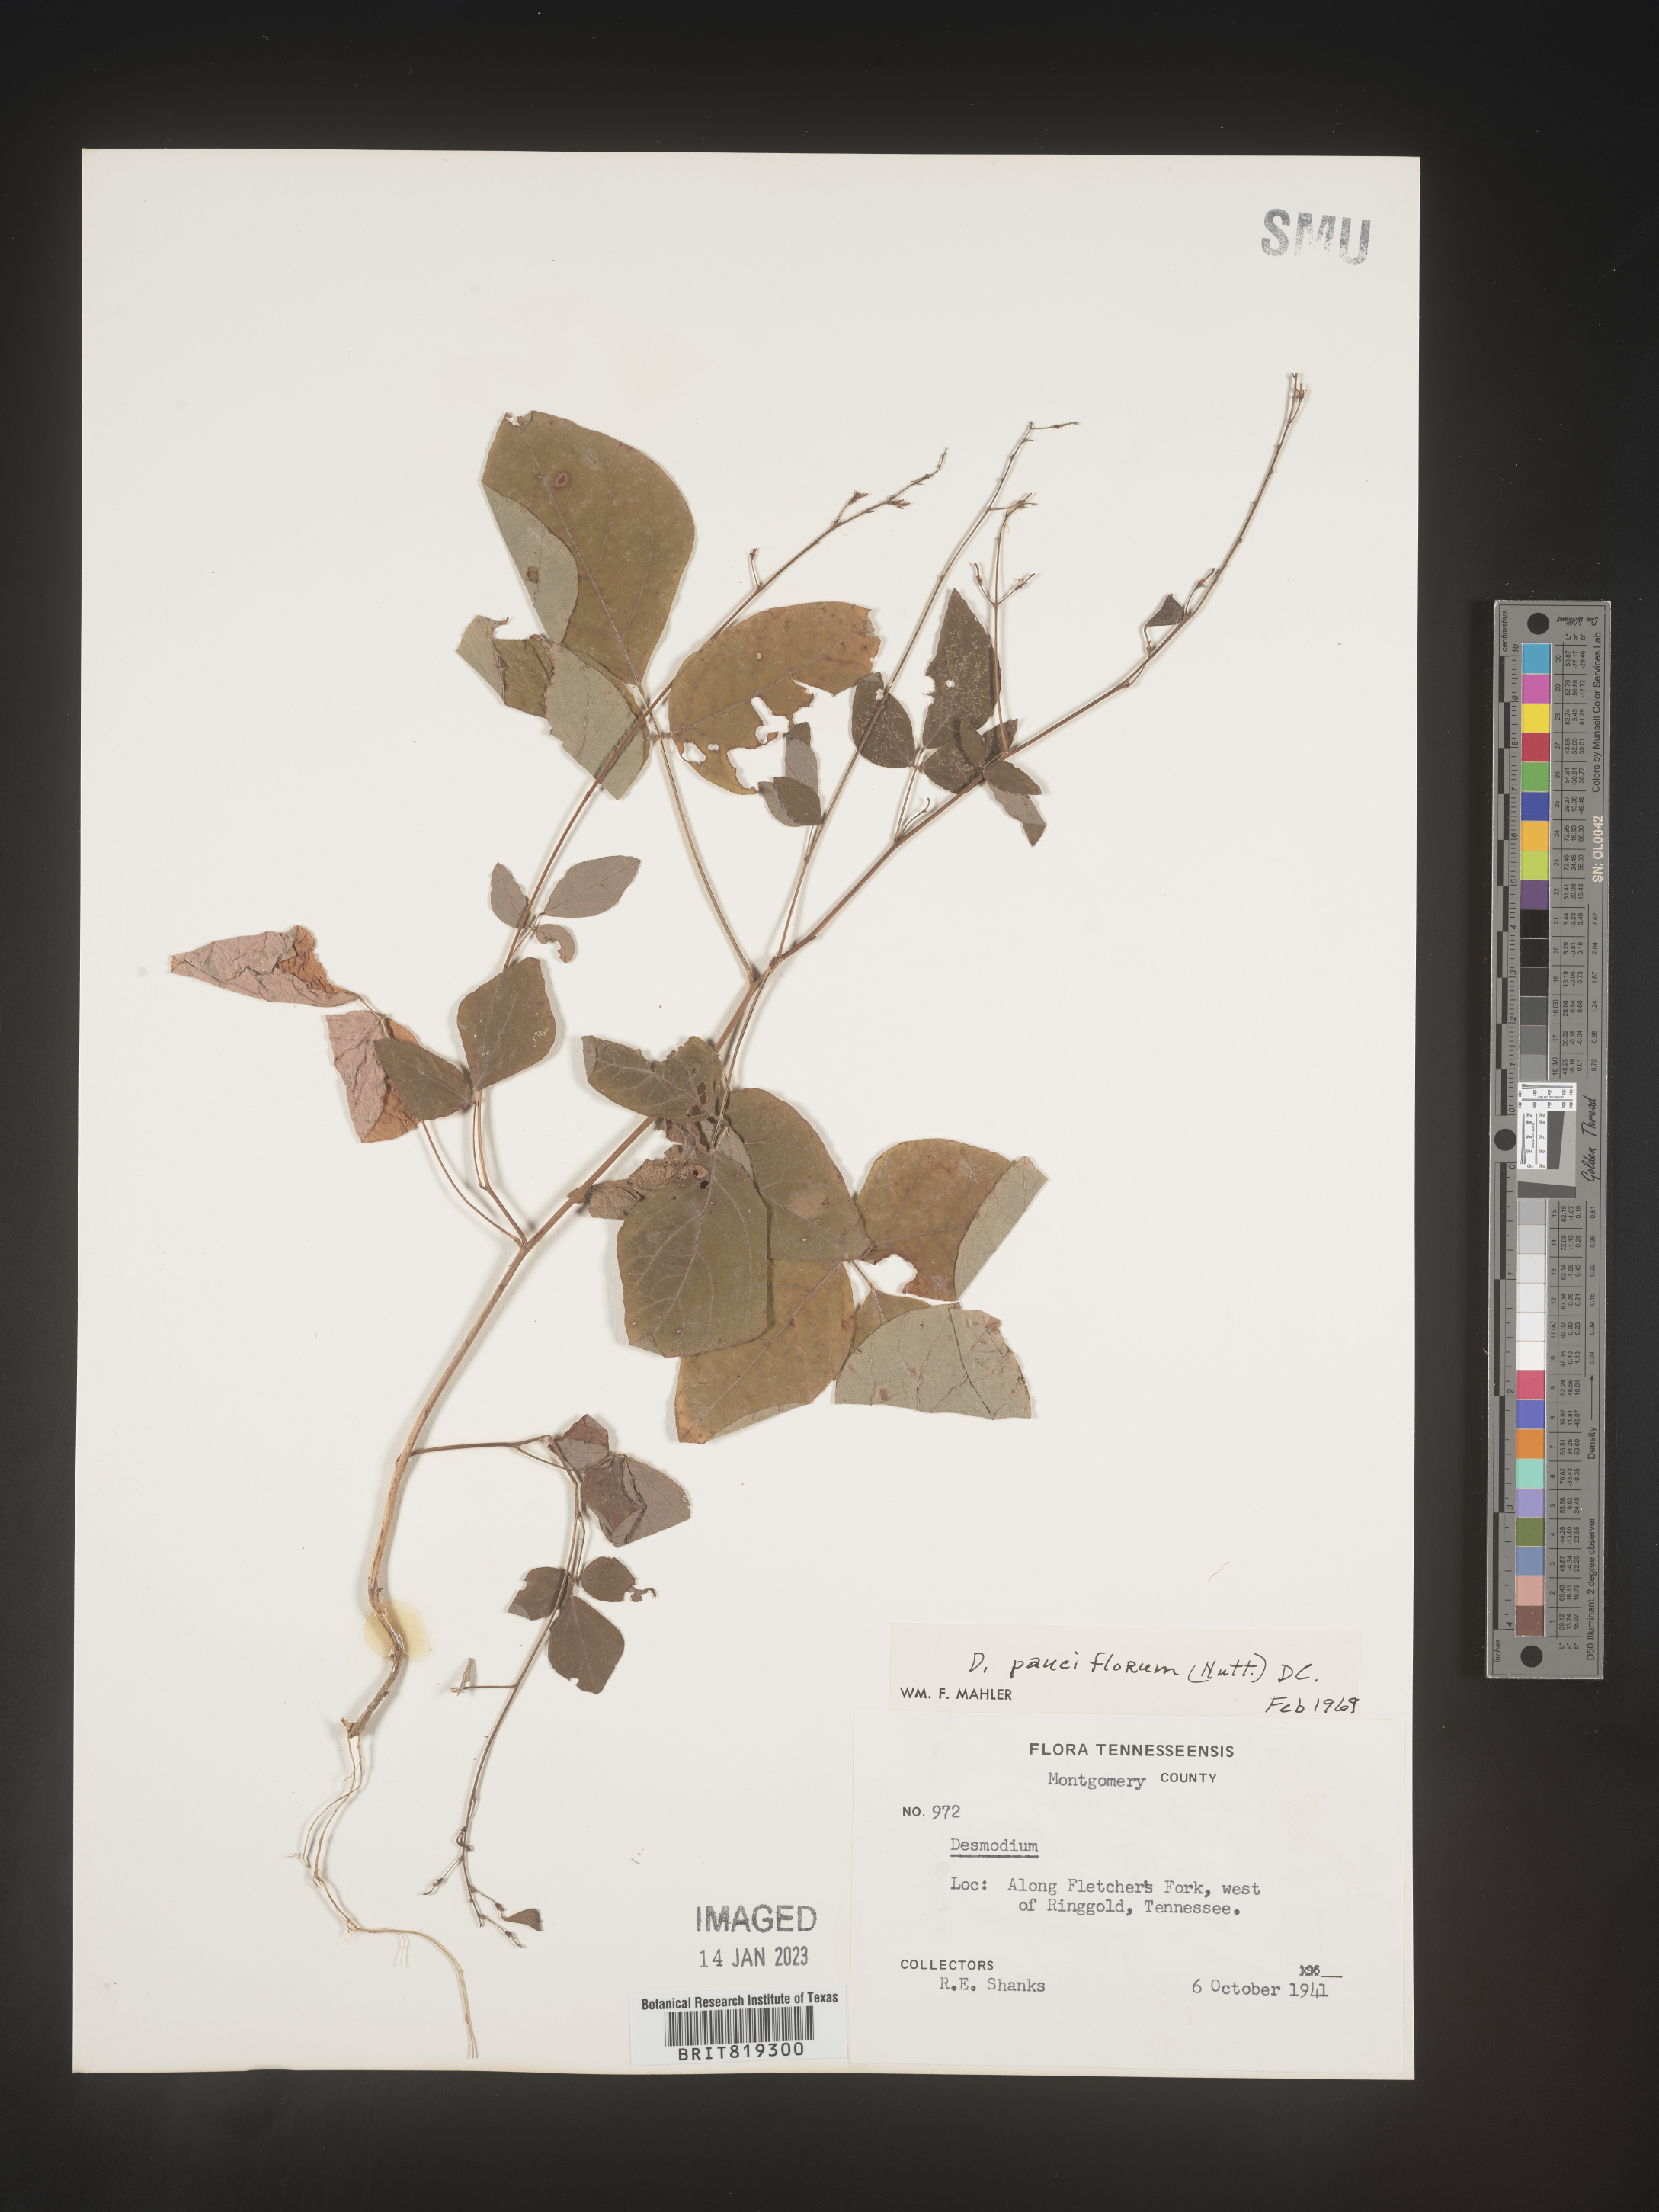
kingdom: Plantae
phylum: Tracheophyta
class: Magnoliopsida
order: Fabales
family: Fabaceae
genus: Hylodesmum
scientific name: Hylodesmum pauciflorum
